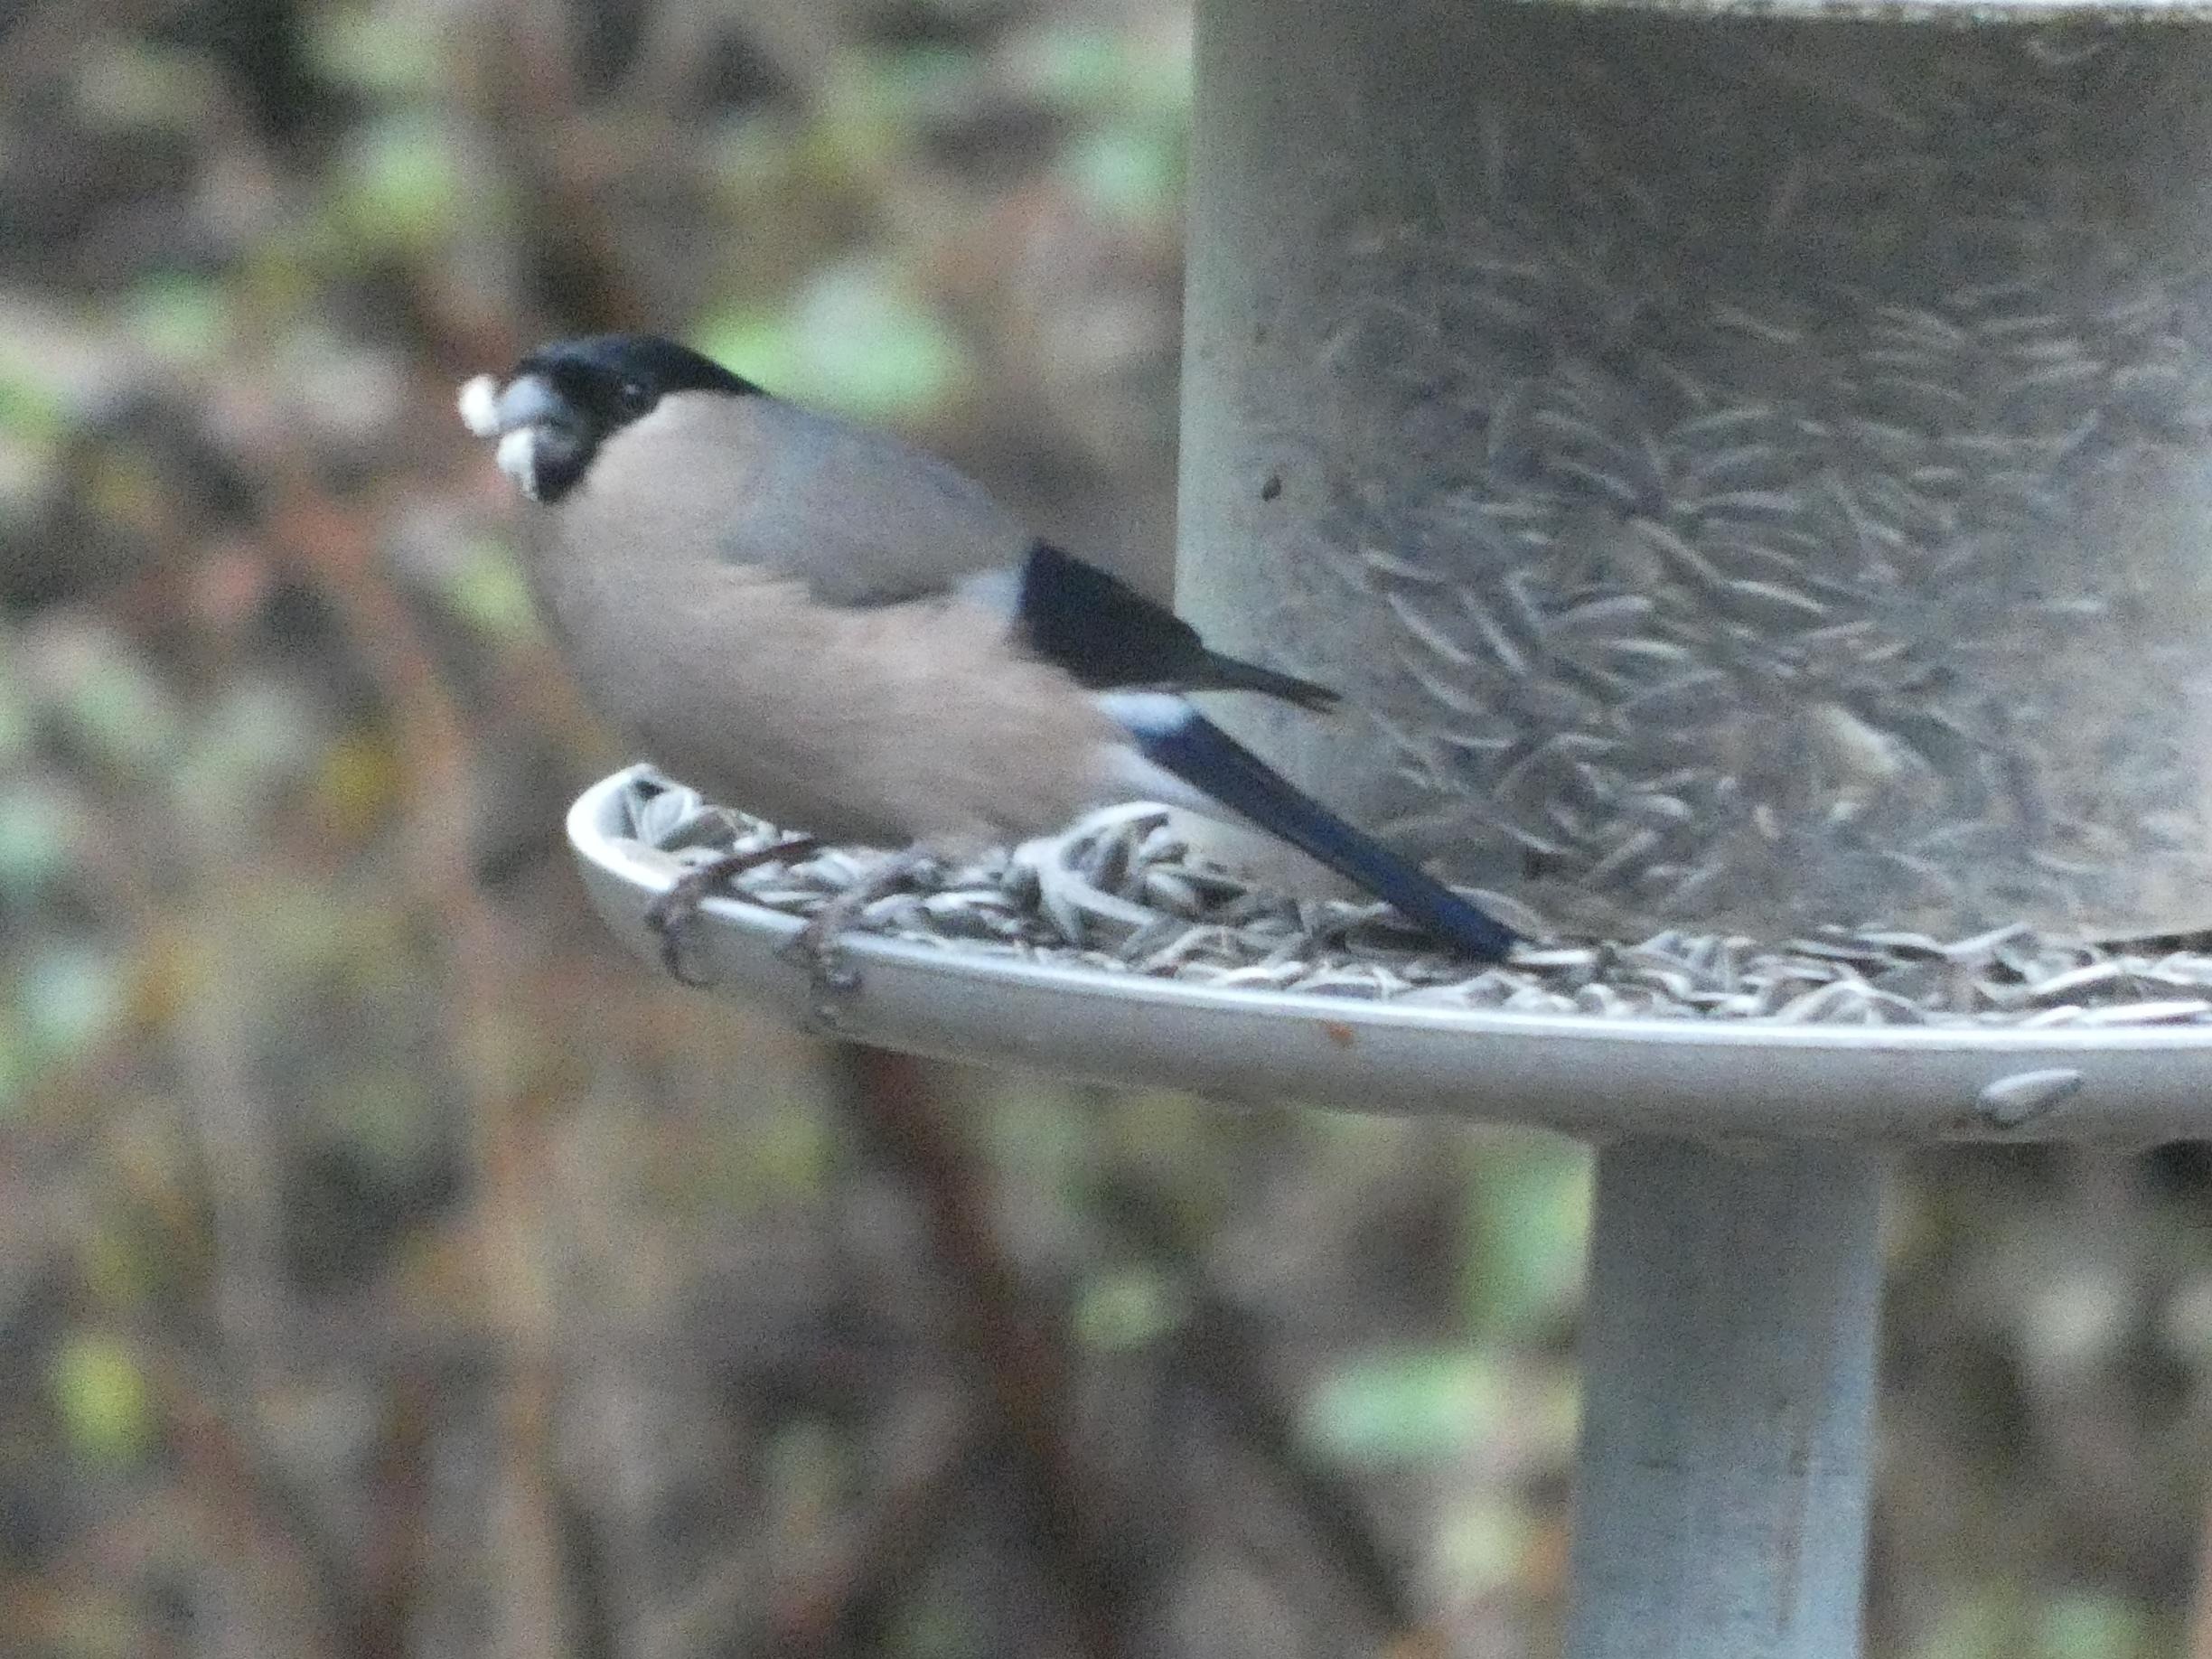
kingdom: Animalia
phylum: Chordata
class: Aves
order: Passeriformes
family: Fringillidae
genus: Pyrrhula
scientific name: Pyrrhula pyrrhula
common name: Dompap
